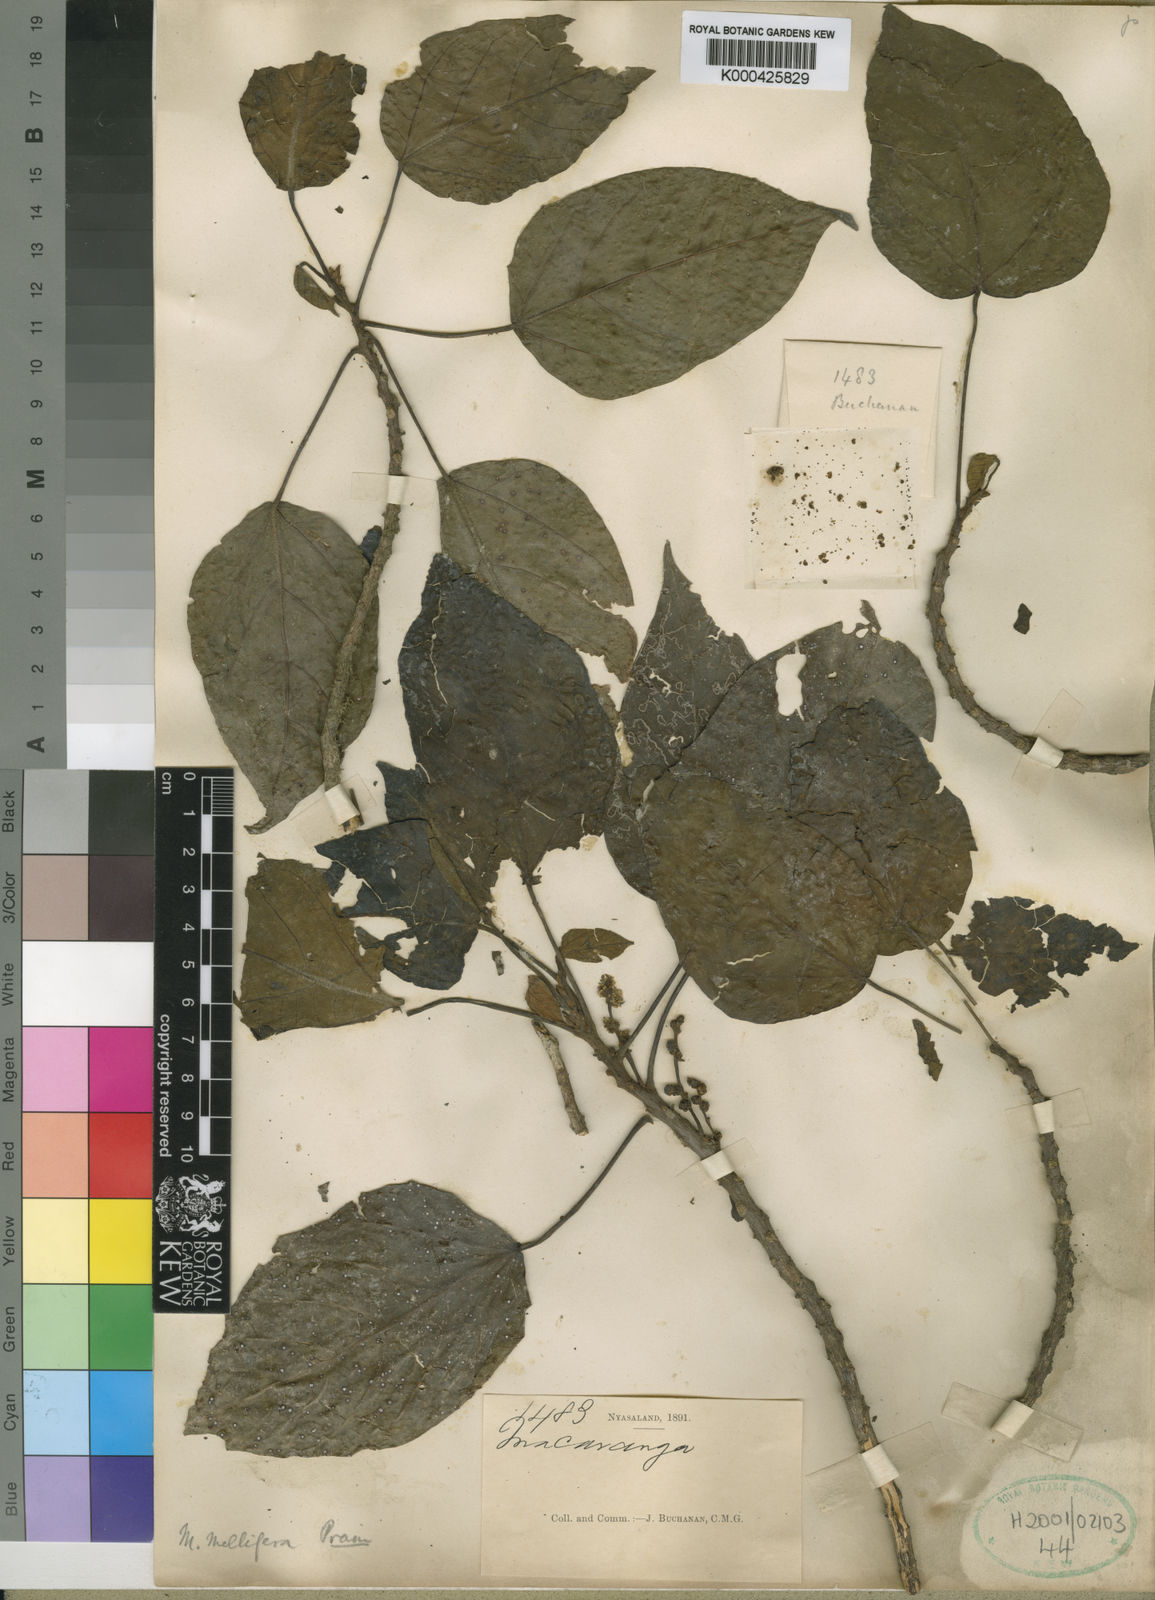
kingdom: Plantae
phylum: Tracheophyta
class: Magnoliopsida
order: Malpighiales
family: Euphorbiaceae
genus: Macaranga
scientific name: Macaranga mellifera
